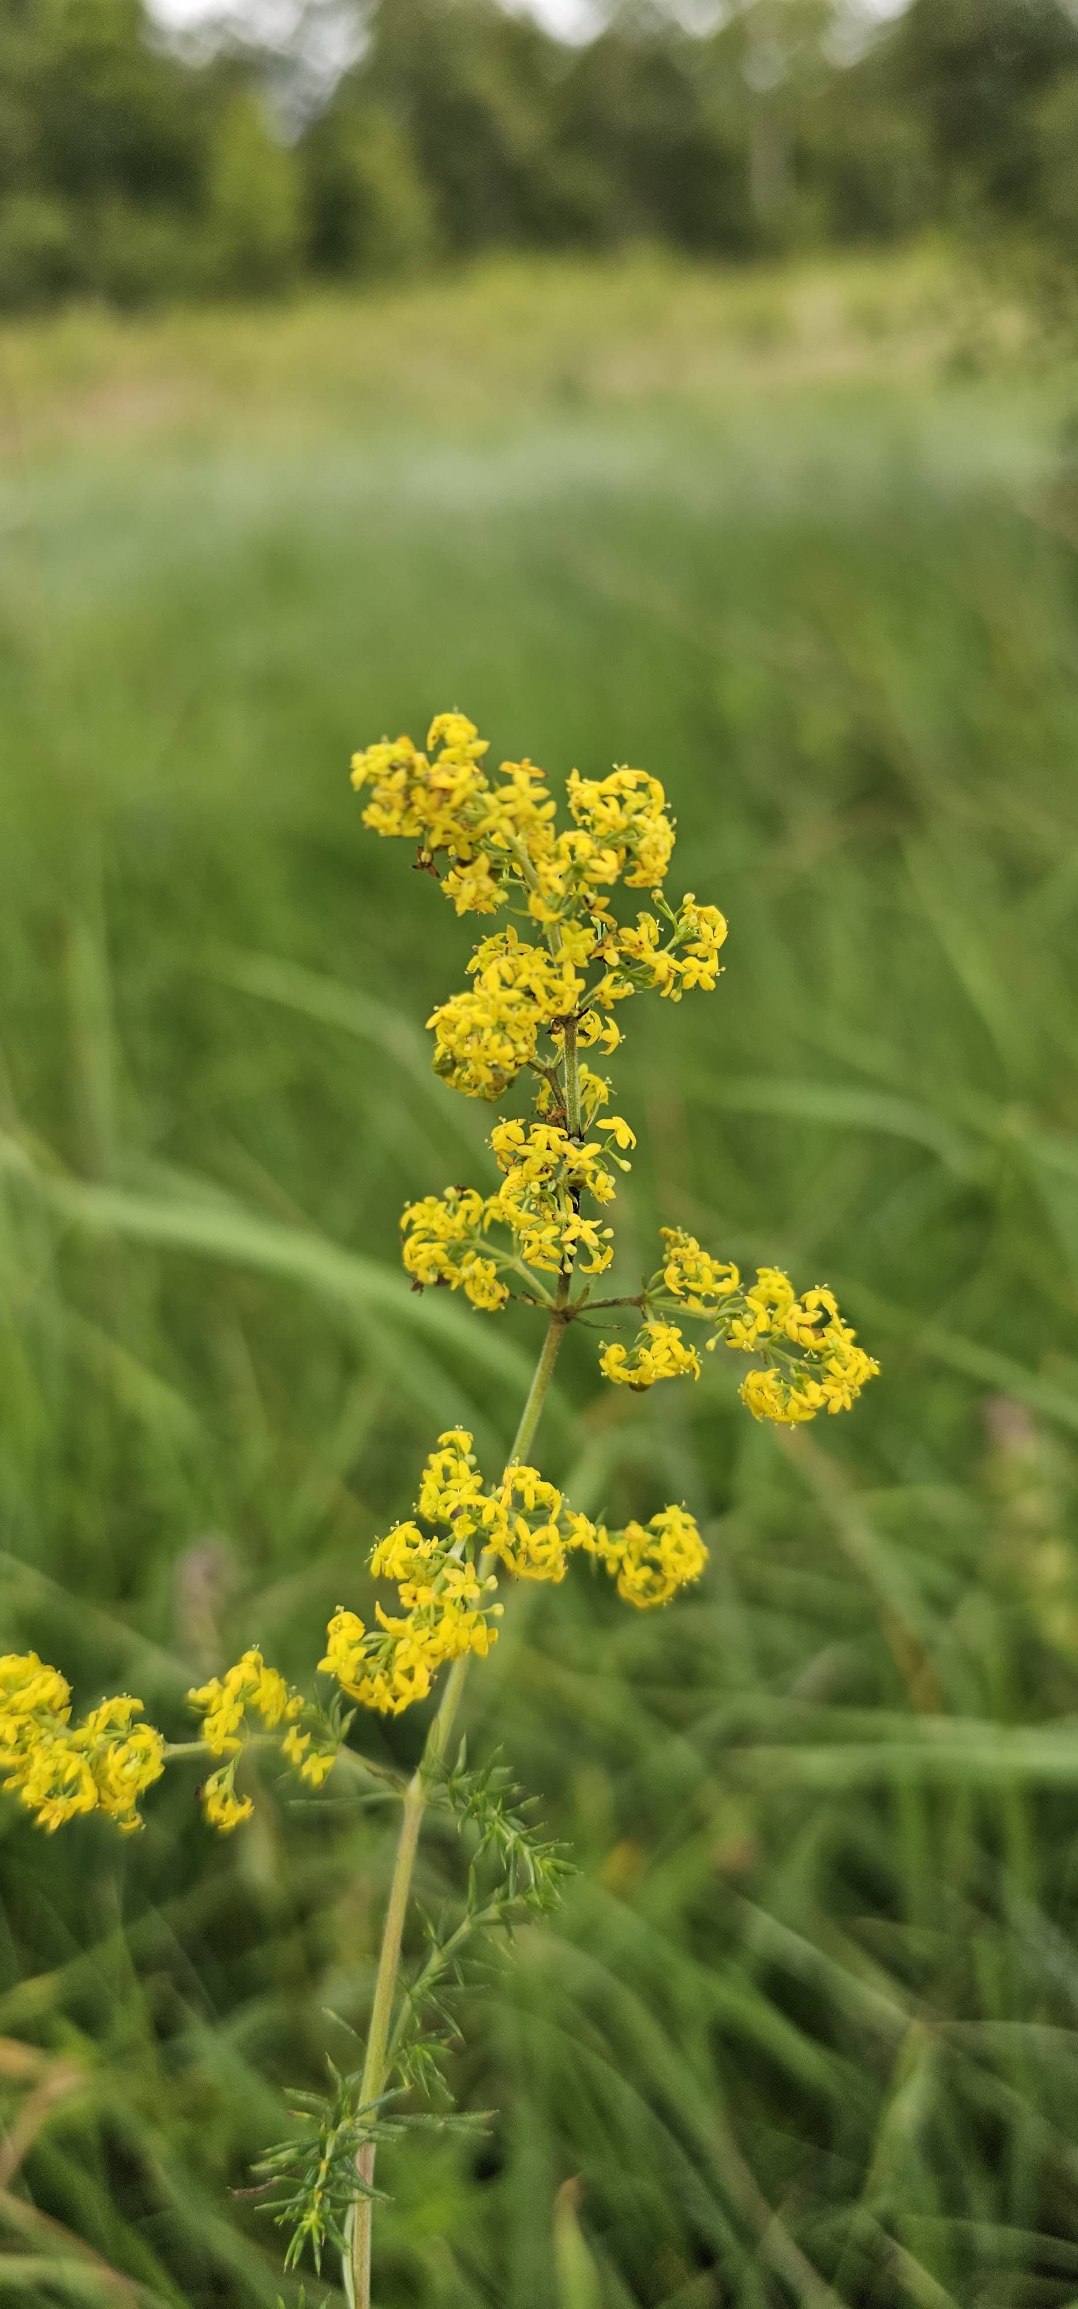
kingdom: Plantae
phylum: Tracheophyta
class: Magnoliopsida
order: Gentianales
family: Rubiaceae
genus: Galium
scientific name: Galium verum
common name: Gul snerre
